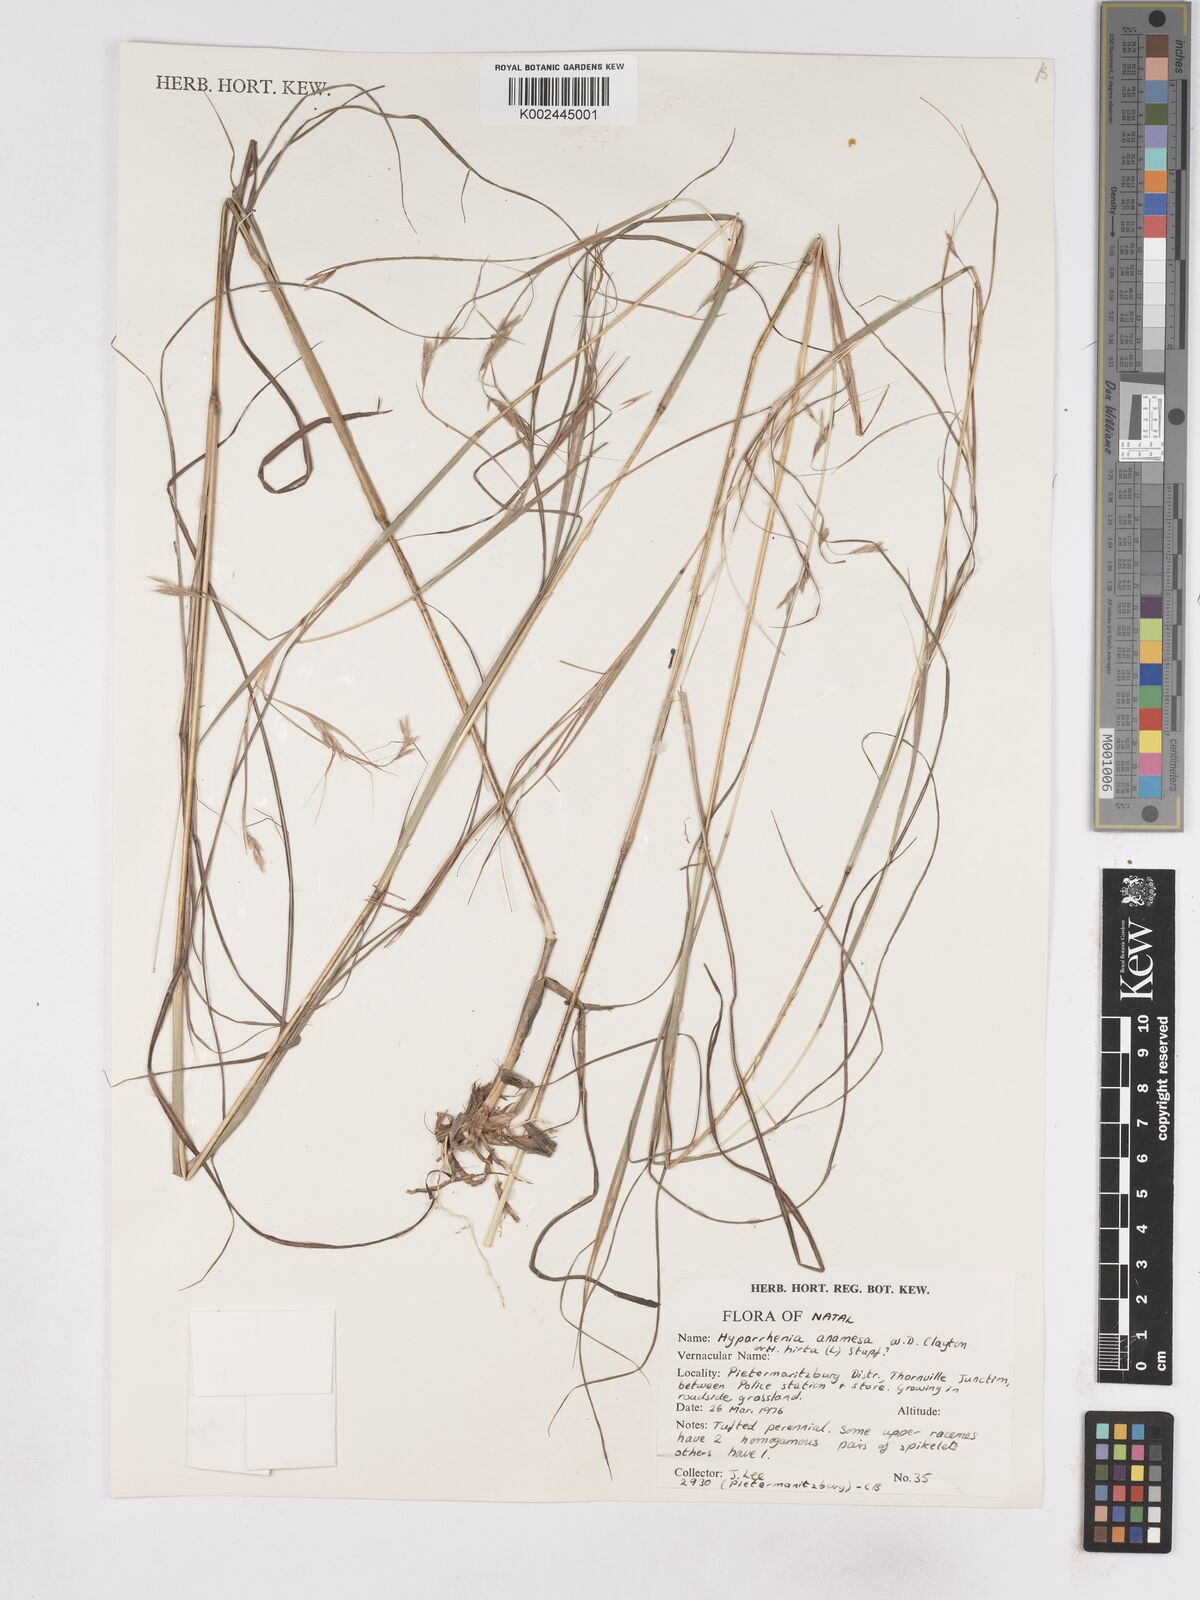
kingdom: Plantae
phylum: Tracheophyta
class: Liliopsida
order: Poales
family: Poaceae
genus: Hyparrhenia
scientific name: Hyparrhenia
